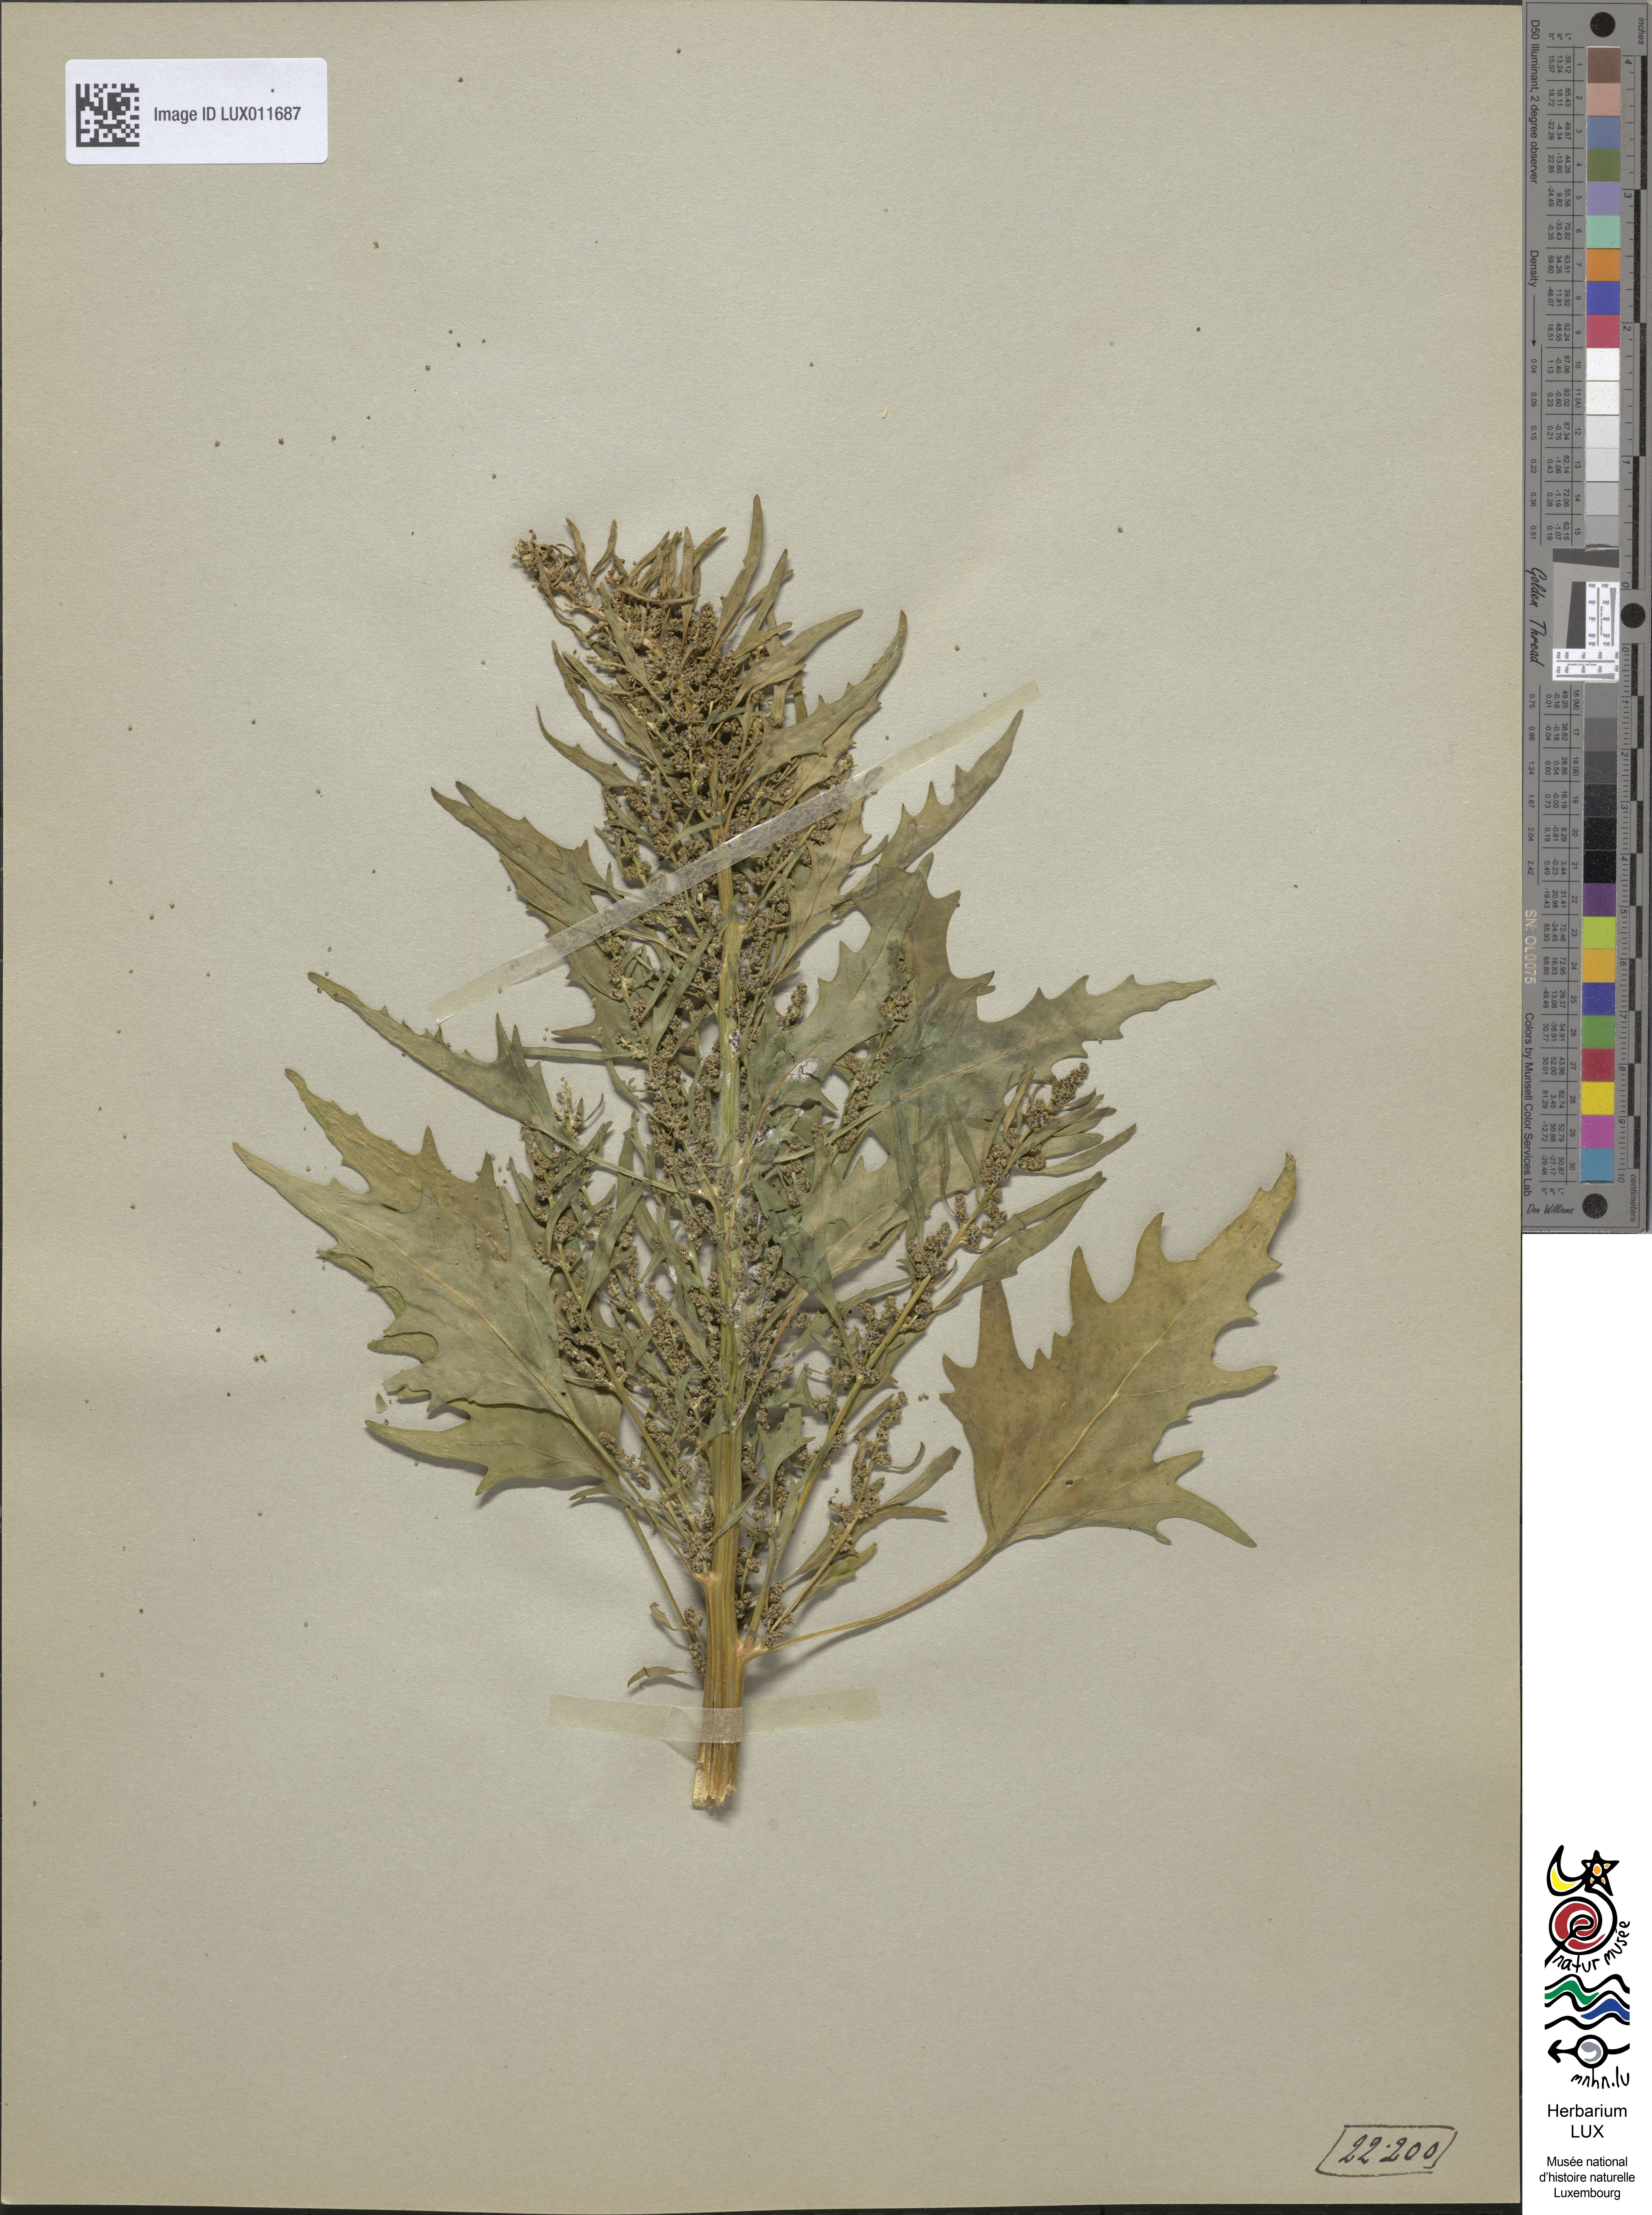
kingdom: Plantae
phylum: Tracheophyta
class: Magnoliopsida
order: Caryophyllales
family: Amaranthaceae
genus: Oxybasis
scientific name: Oxybasis rubra
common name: Red goosefoot
